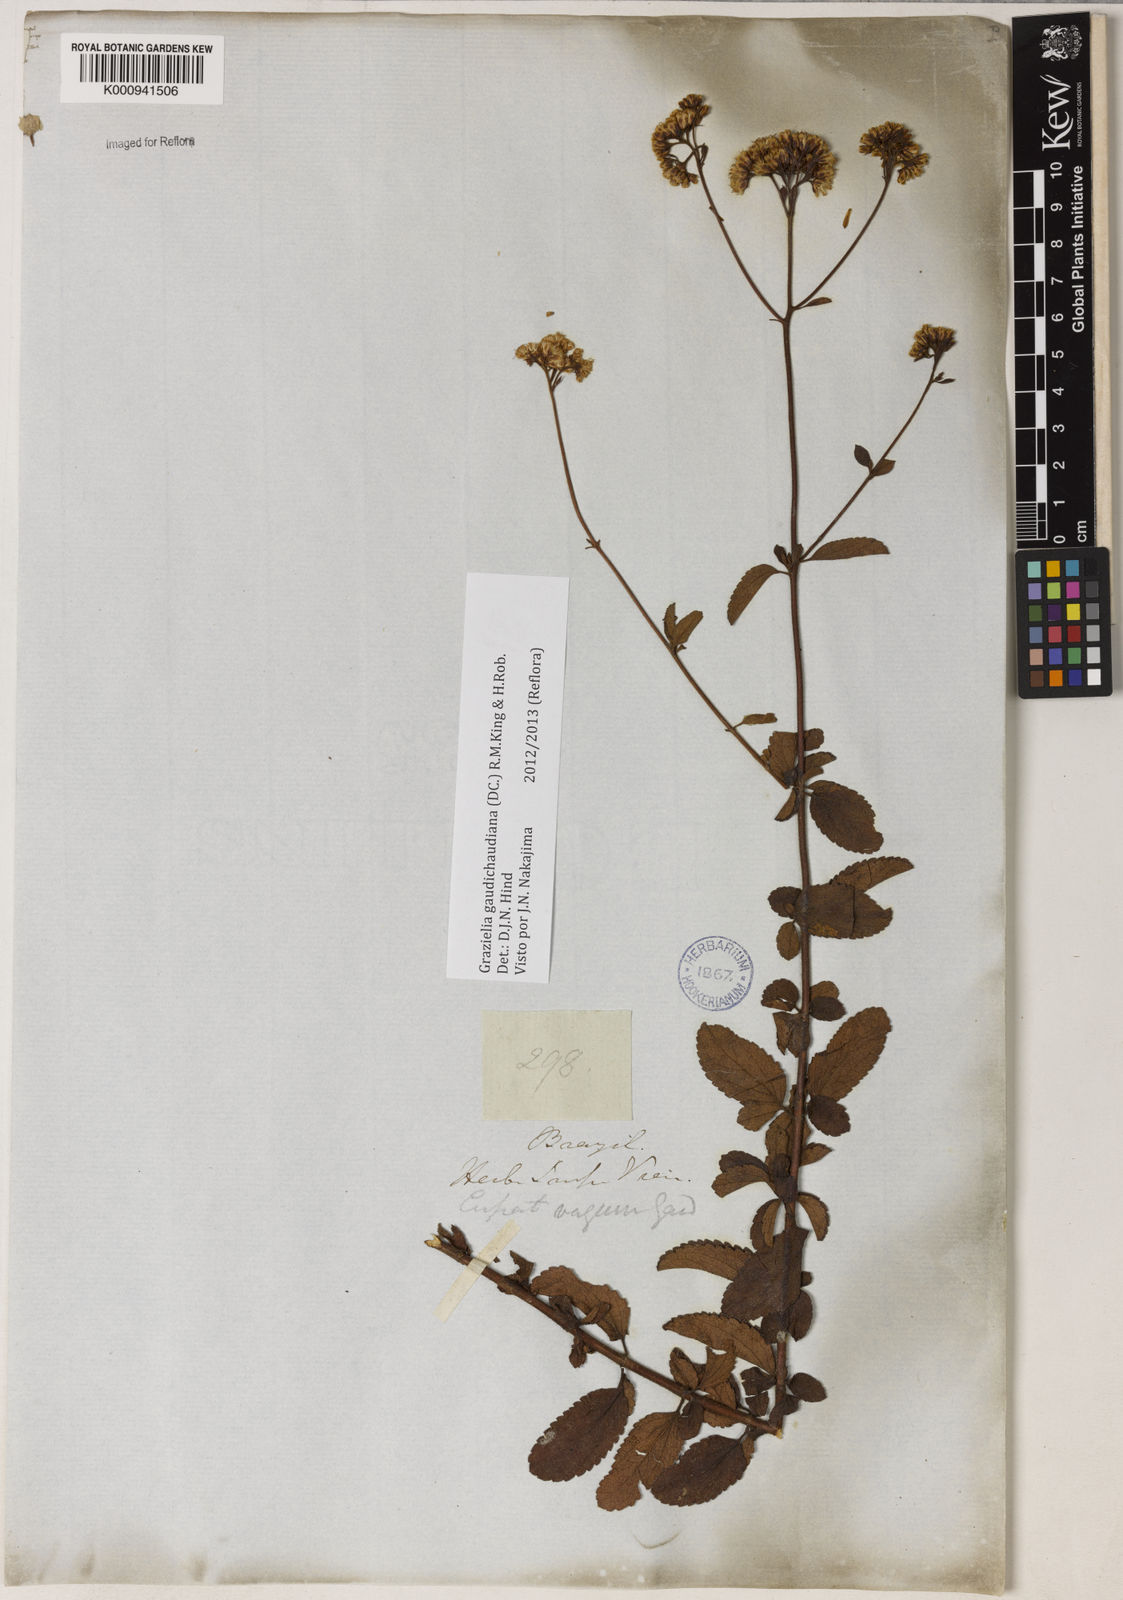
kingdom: Plantae
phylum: Tracheophyta
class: Magnoliopsida
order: Asterales
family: Asteraceae
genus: Grazielia
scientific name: Grazielia
